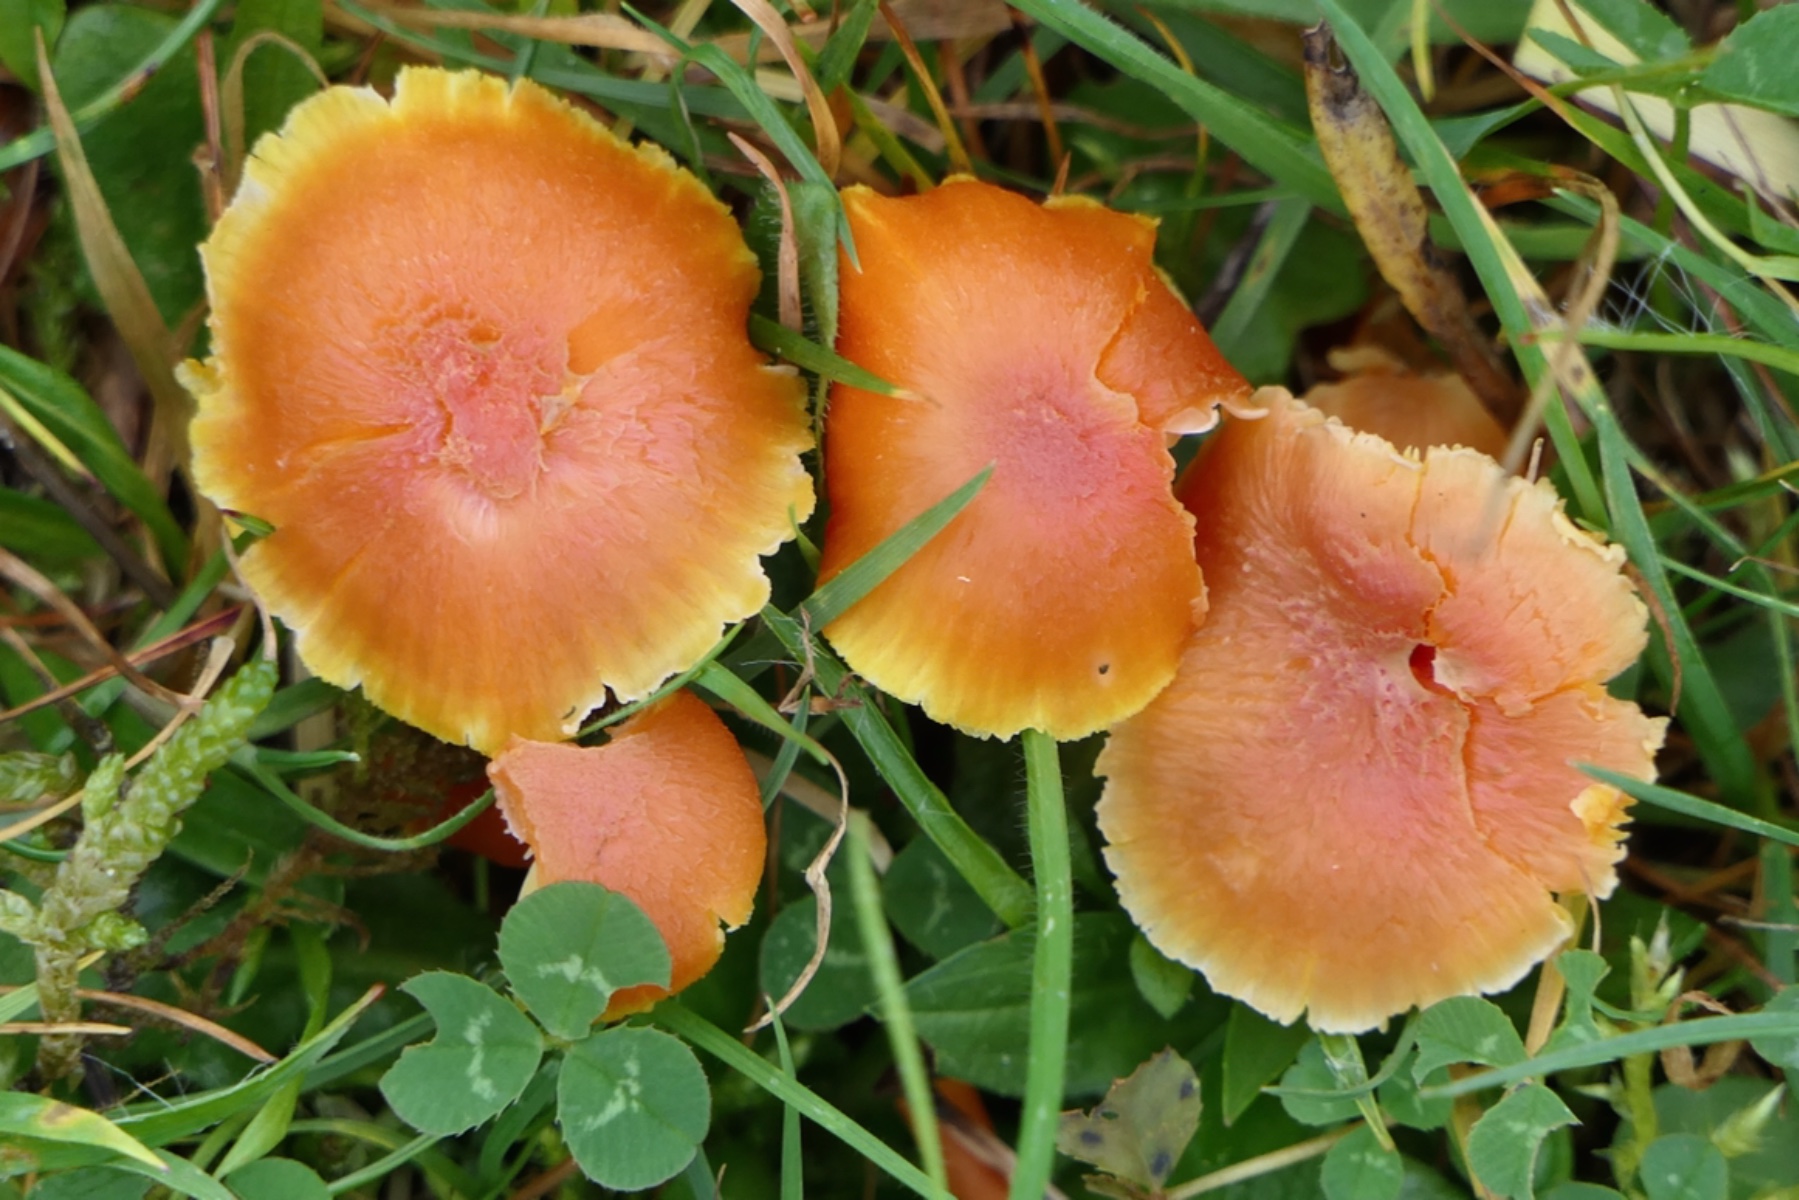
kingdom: Fungi
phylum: Basidiomycota
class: Agaricomycetes
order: Agaricales
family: Hygrophoraceae
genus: Hygrocybe
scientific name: Hygrocybe reidii
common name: honning-vokshat
